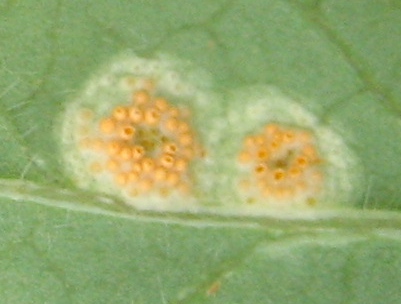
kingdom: Fungi
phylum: Basidiomycota
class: Pucciniomycetes
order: Pucciniales
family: Pucciniaceae
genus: Puccinia
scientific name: Puccinia festucae
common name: gedeblad-tvecellerust
